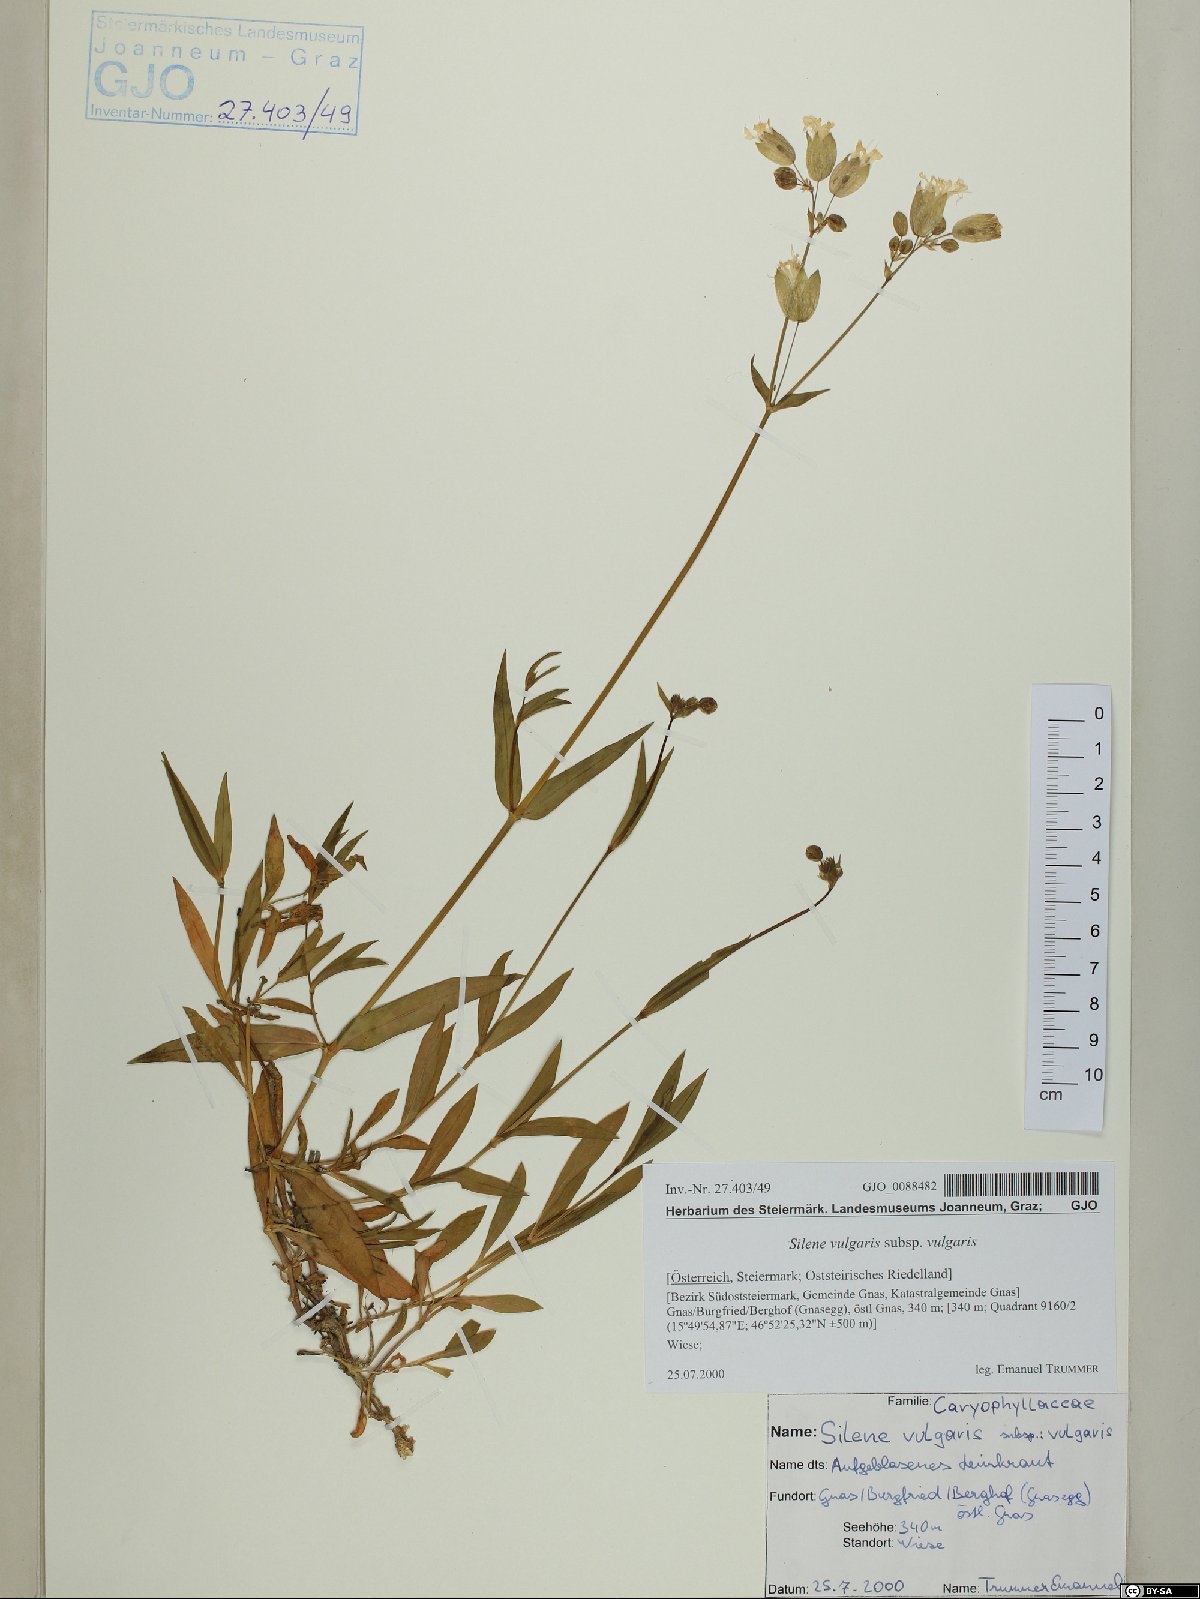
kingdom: Plantae
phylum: Tracheophyta
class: Magnoliopsida
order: Caryophyllales
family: Caryophyllaceae
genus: Silene
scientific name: Silene vulgaris
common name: Bladder campion
